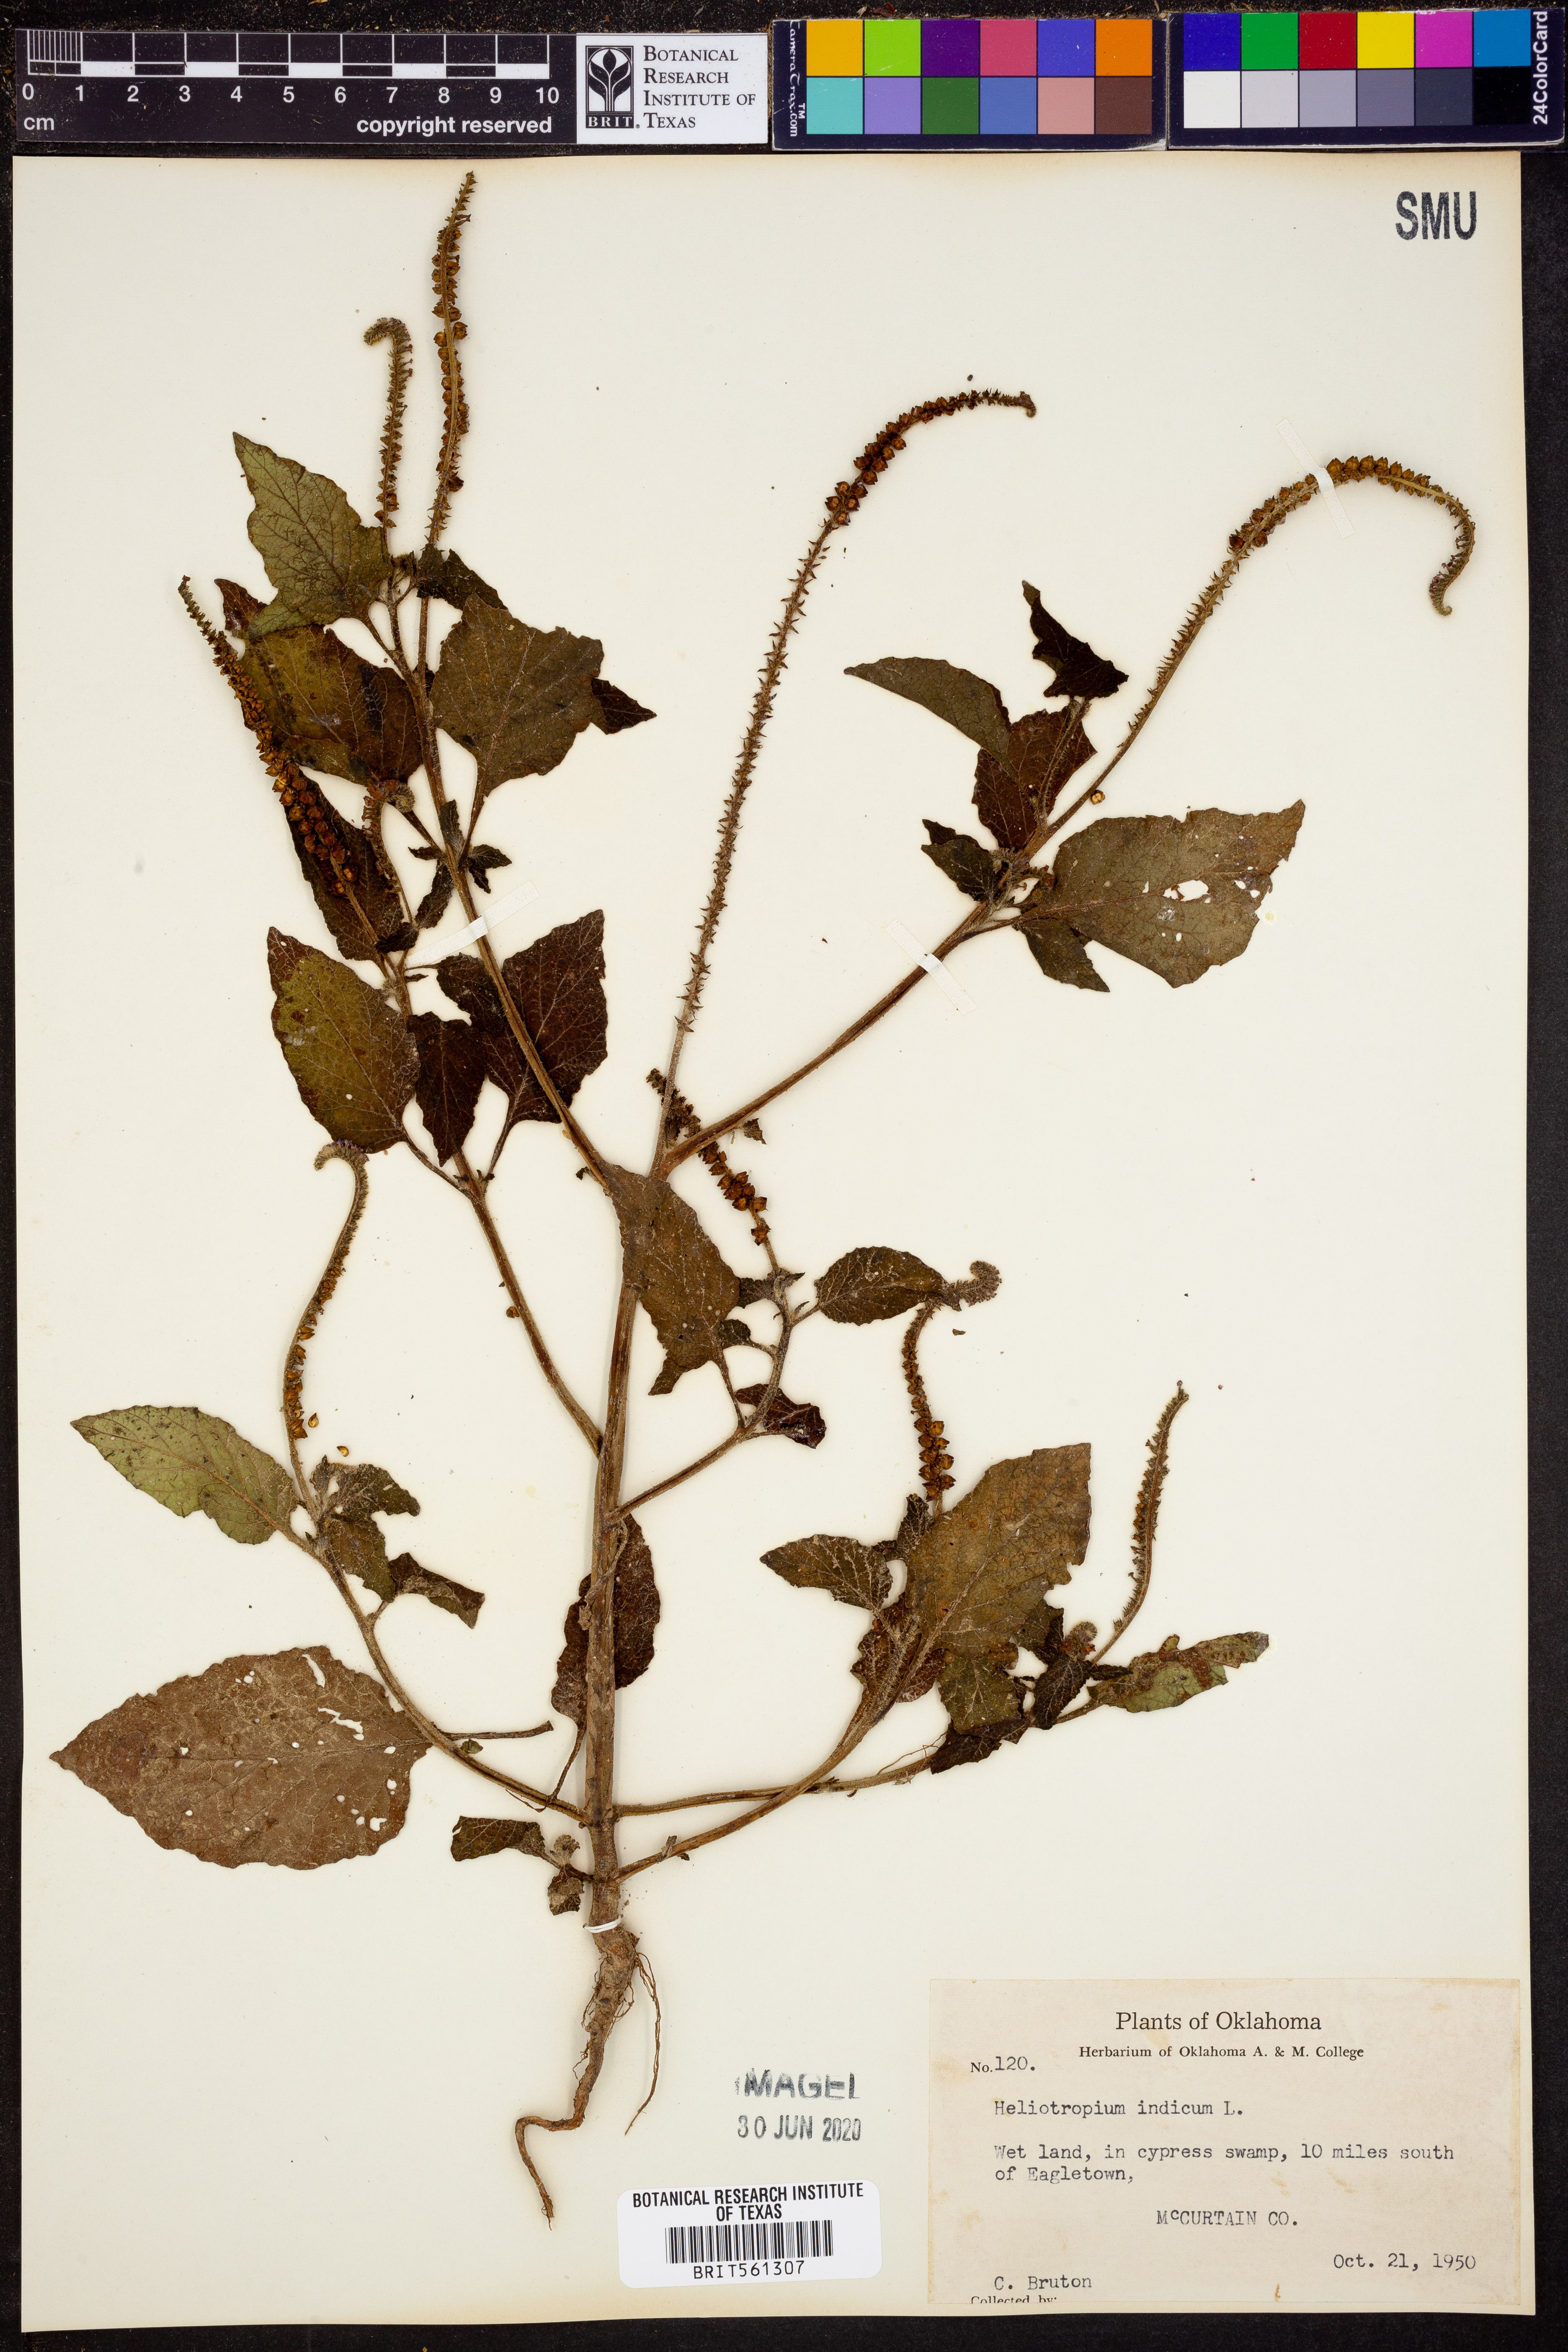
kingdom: Plantae
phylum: Tracheophyta
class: Magnoliopsida
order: Boraginales
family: Heliotropiaceae
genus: Heliotropium
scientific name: Heliotropium indicum
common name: Indian heliotrope
